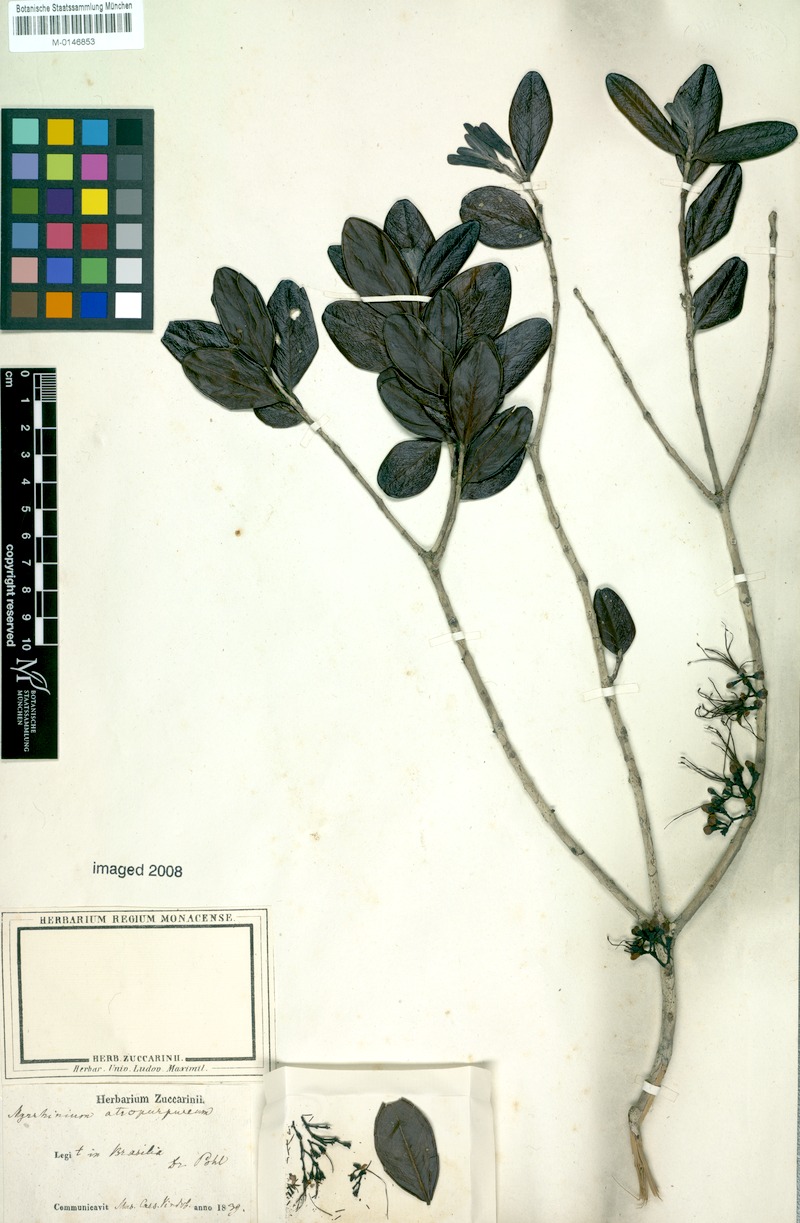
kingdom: Plantae
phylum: Tracheophyta
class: Magnoliopsida
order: Myrtales
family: Myrtaceae
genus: Myrrhinium
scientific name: Myrrhinium atropurpureum
